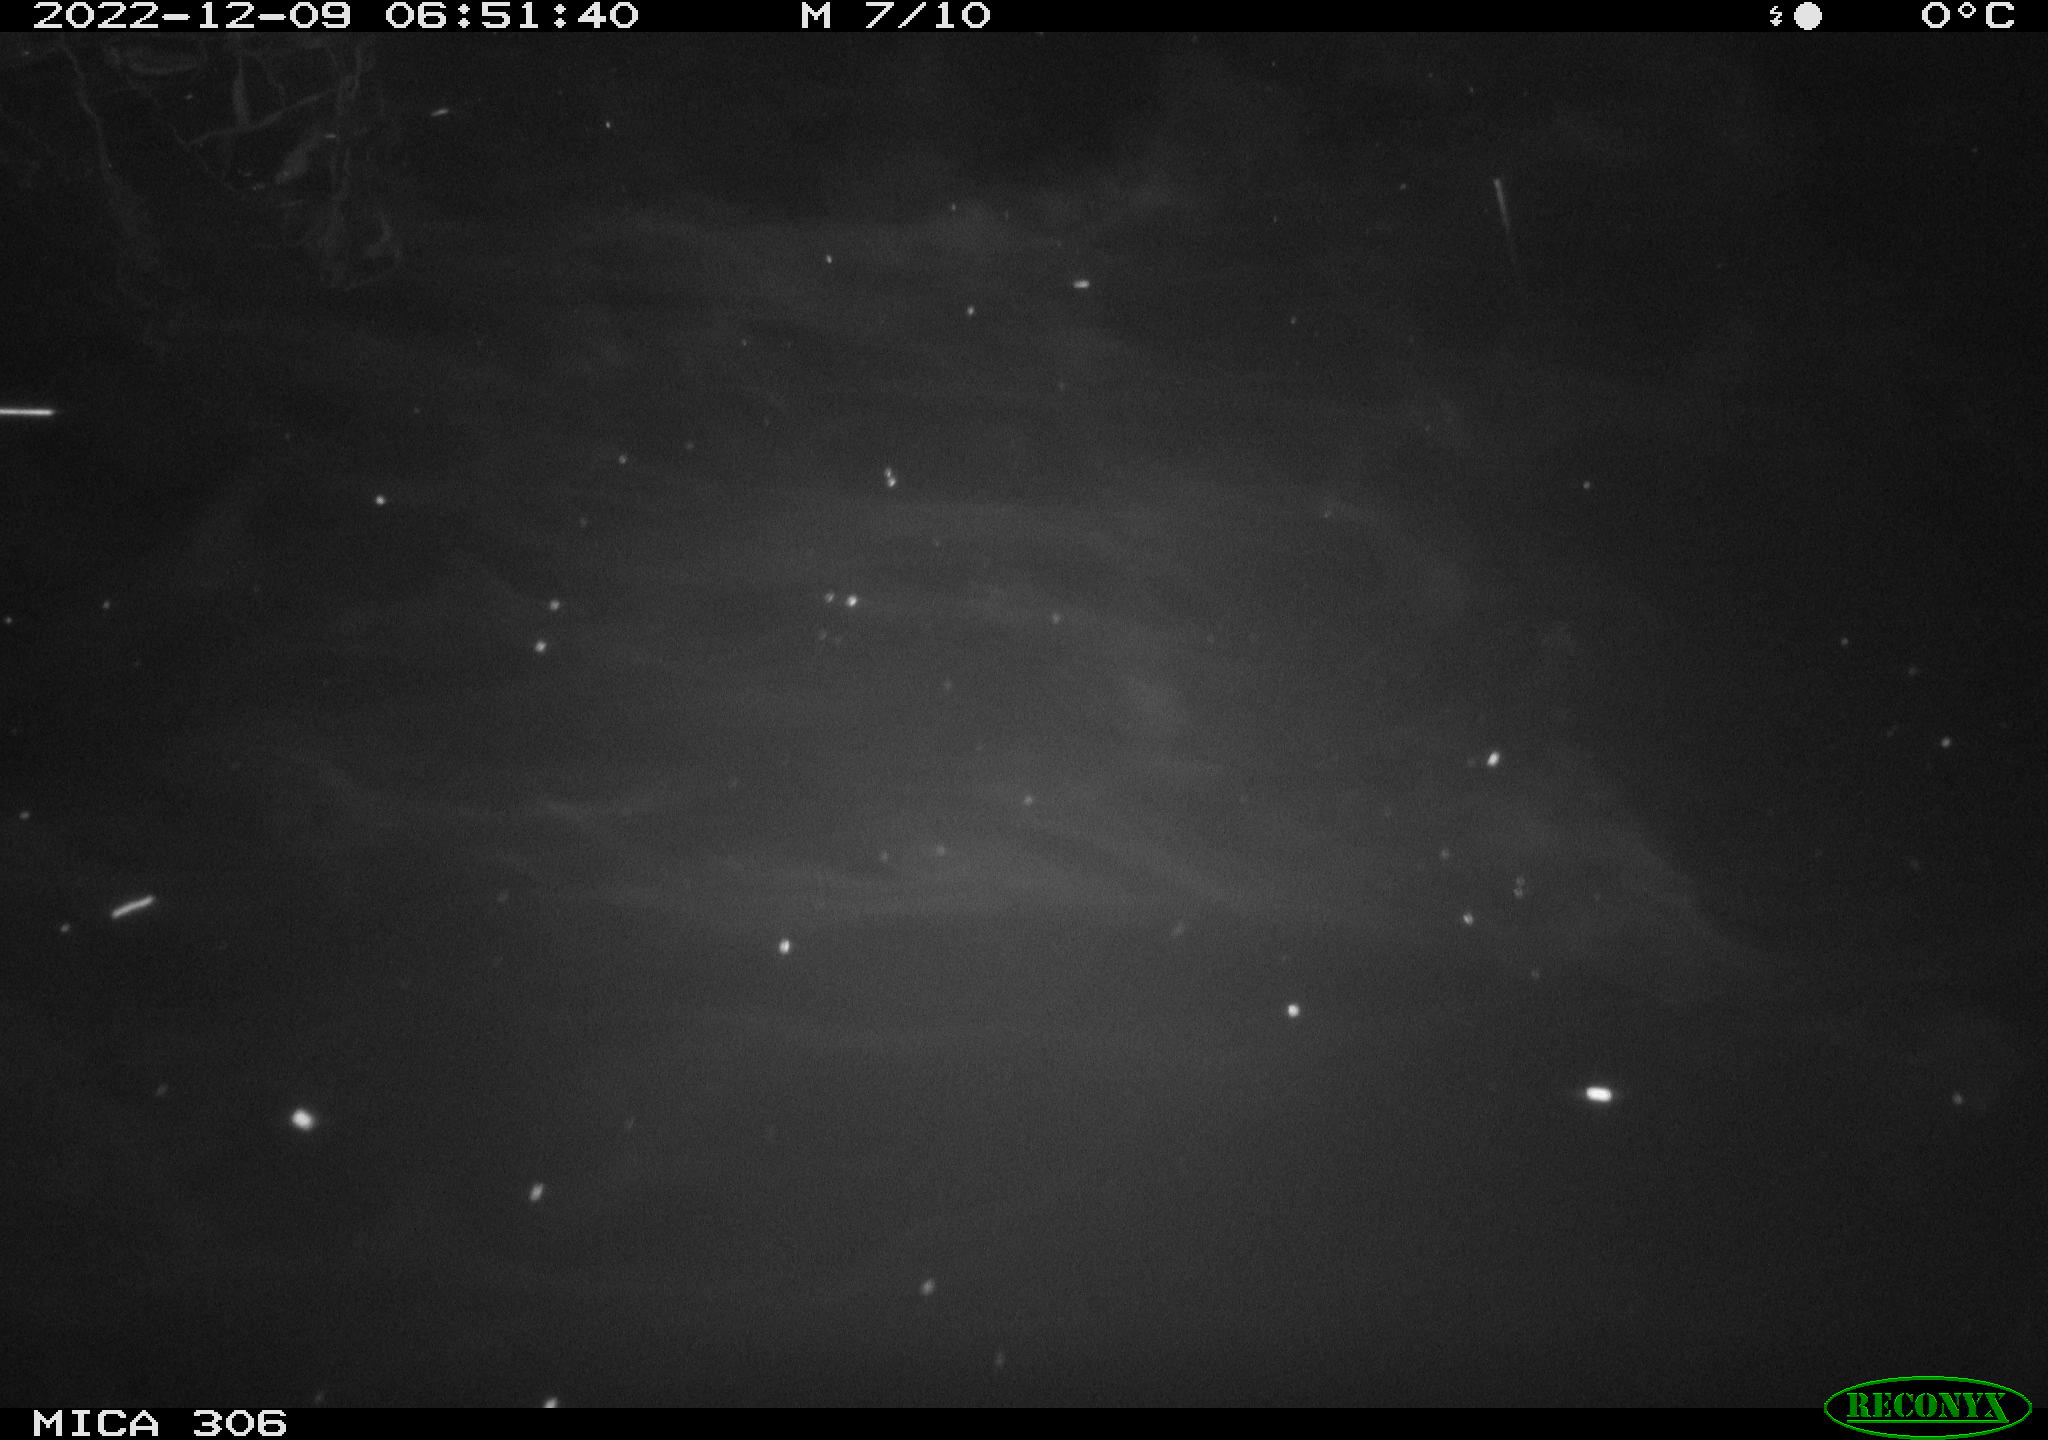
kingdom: Animalia
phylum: Chordata
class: Mammalia
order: Rodentia
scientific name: Rodentia
